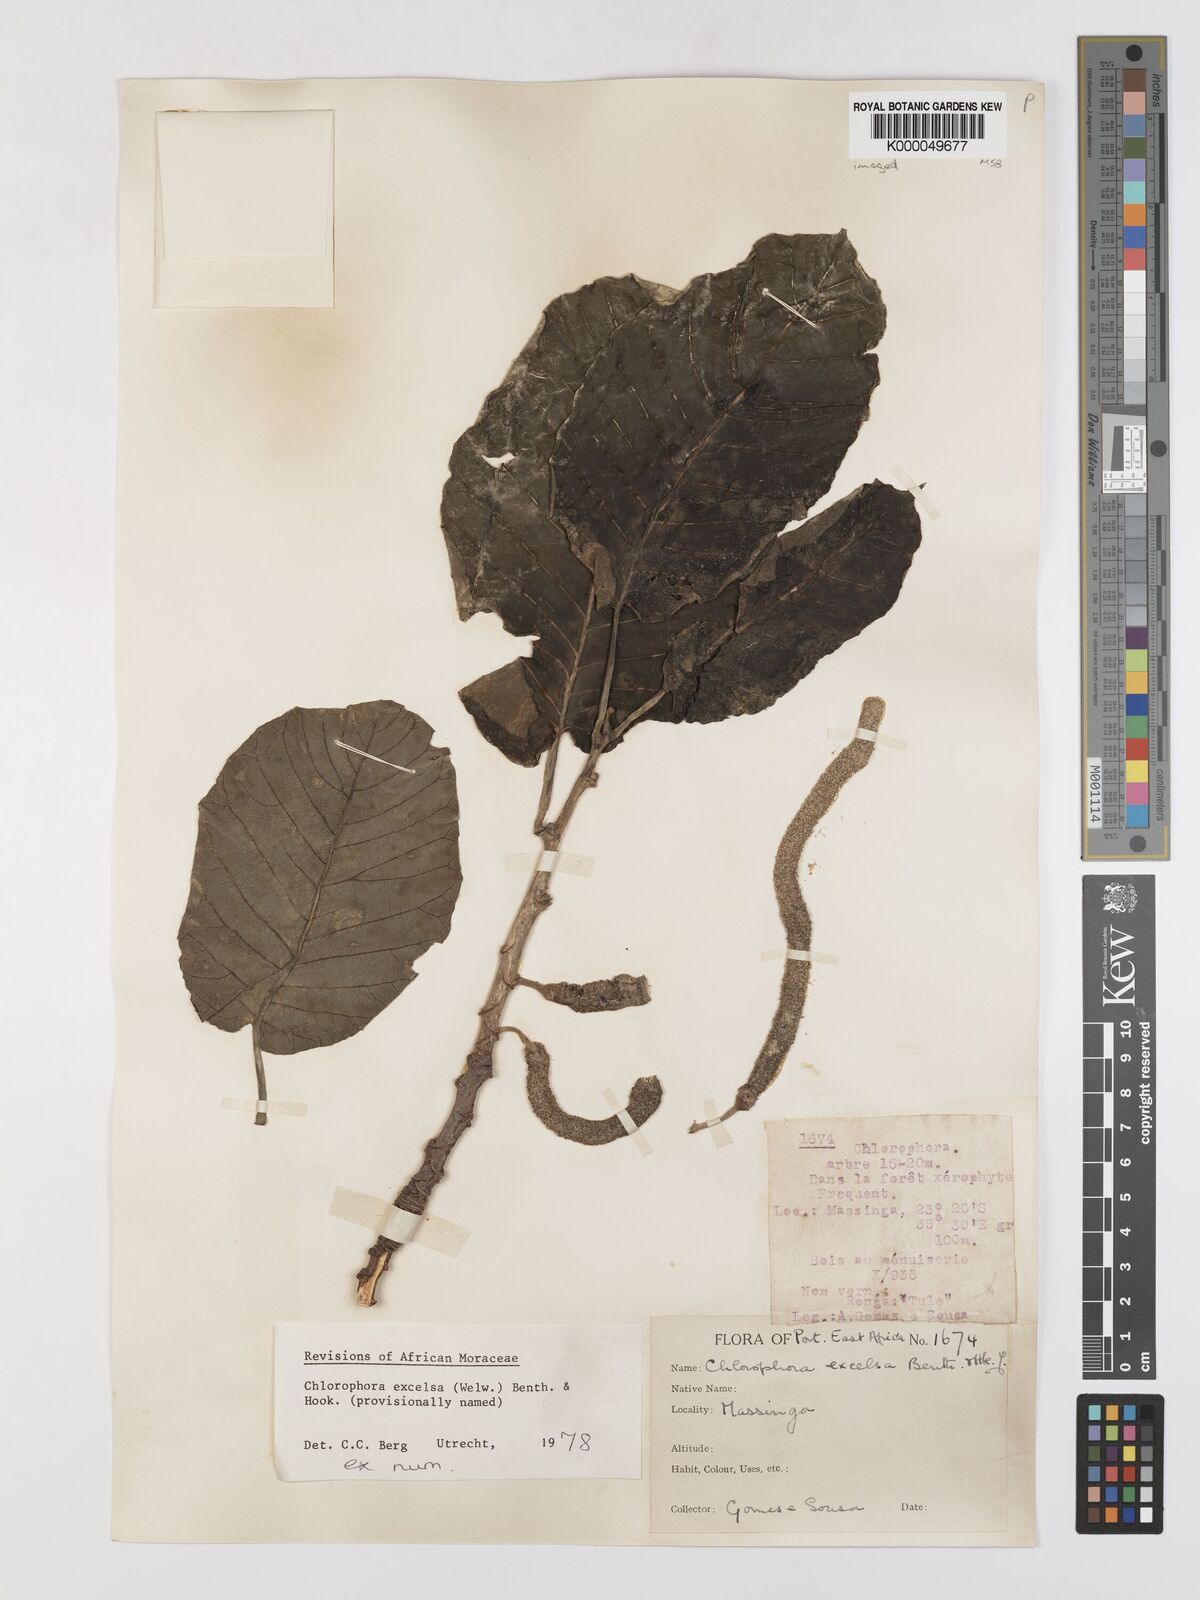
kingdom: Plantae
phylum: Tracheophyta
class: Magnoliopsida
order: Rosales
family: Moraceae
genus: Milicia
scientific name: Milicia excelsa
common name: African teak
